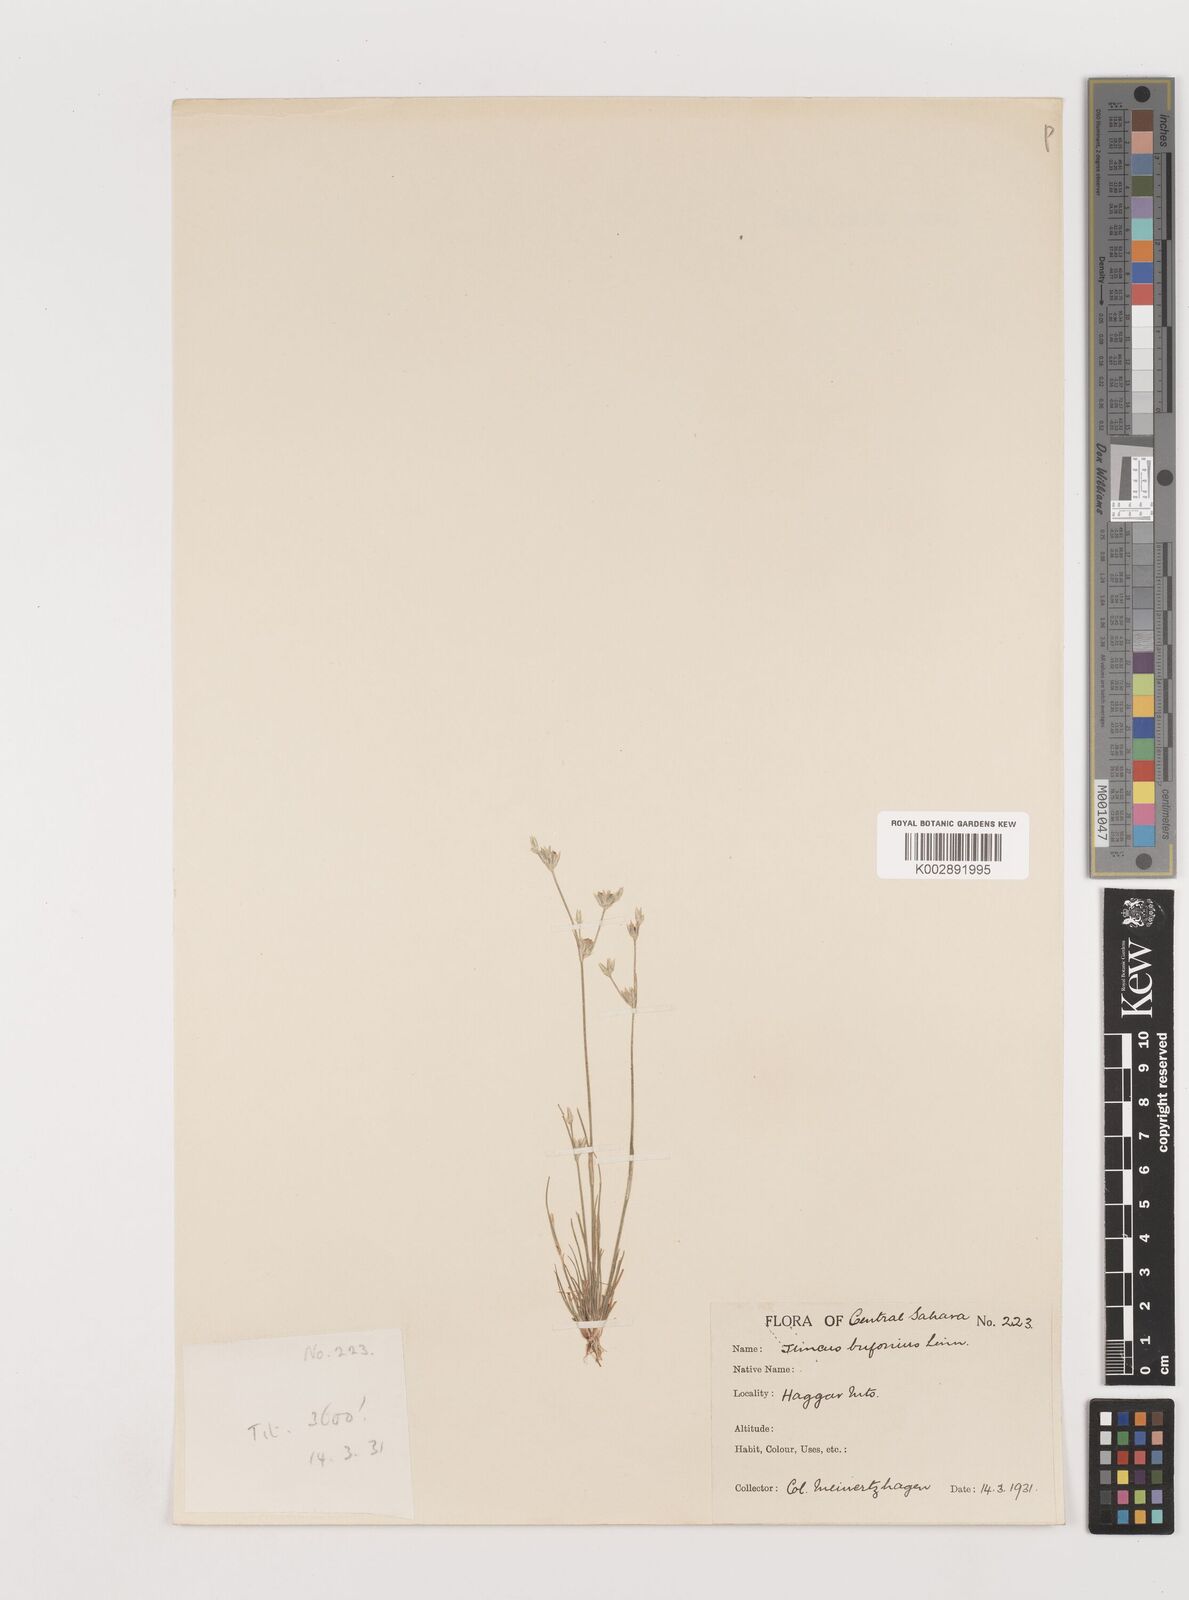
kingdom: Plantae
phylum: Tracheophyta
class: Liliopsida
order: Poales
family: Juncaceae
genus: Juncus
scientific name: Juncus bufonius
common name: Toad rush
